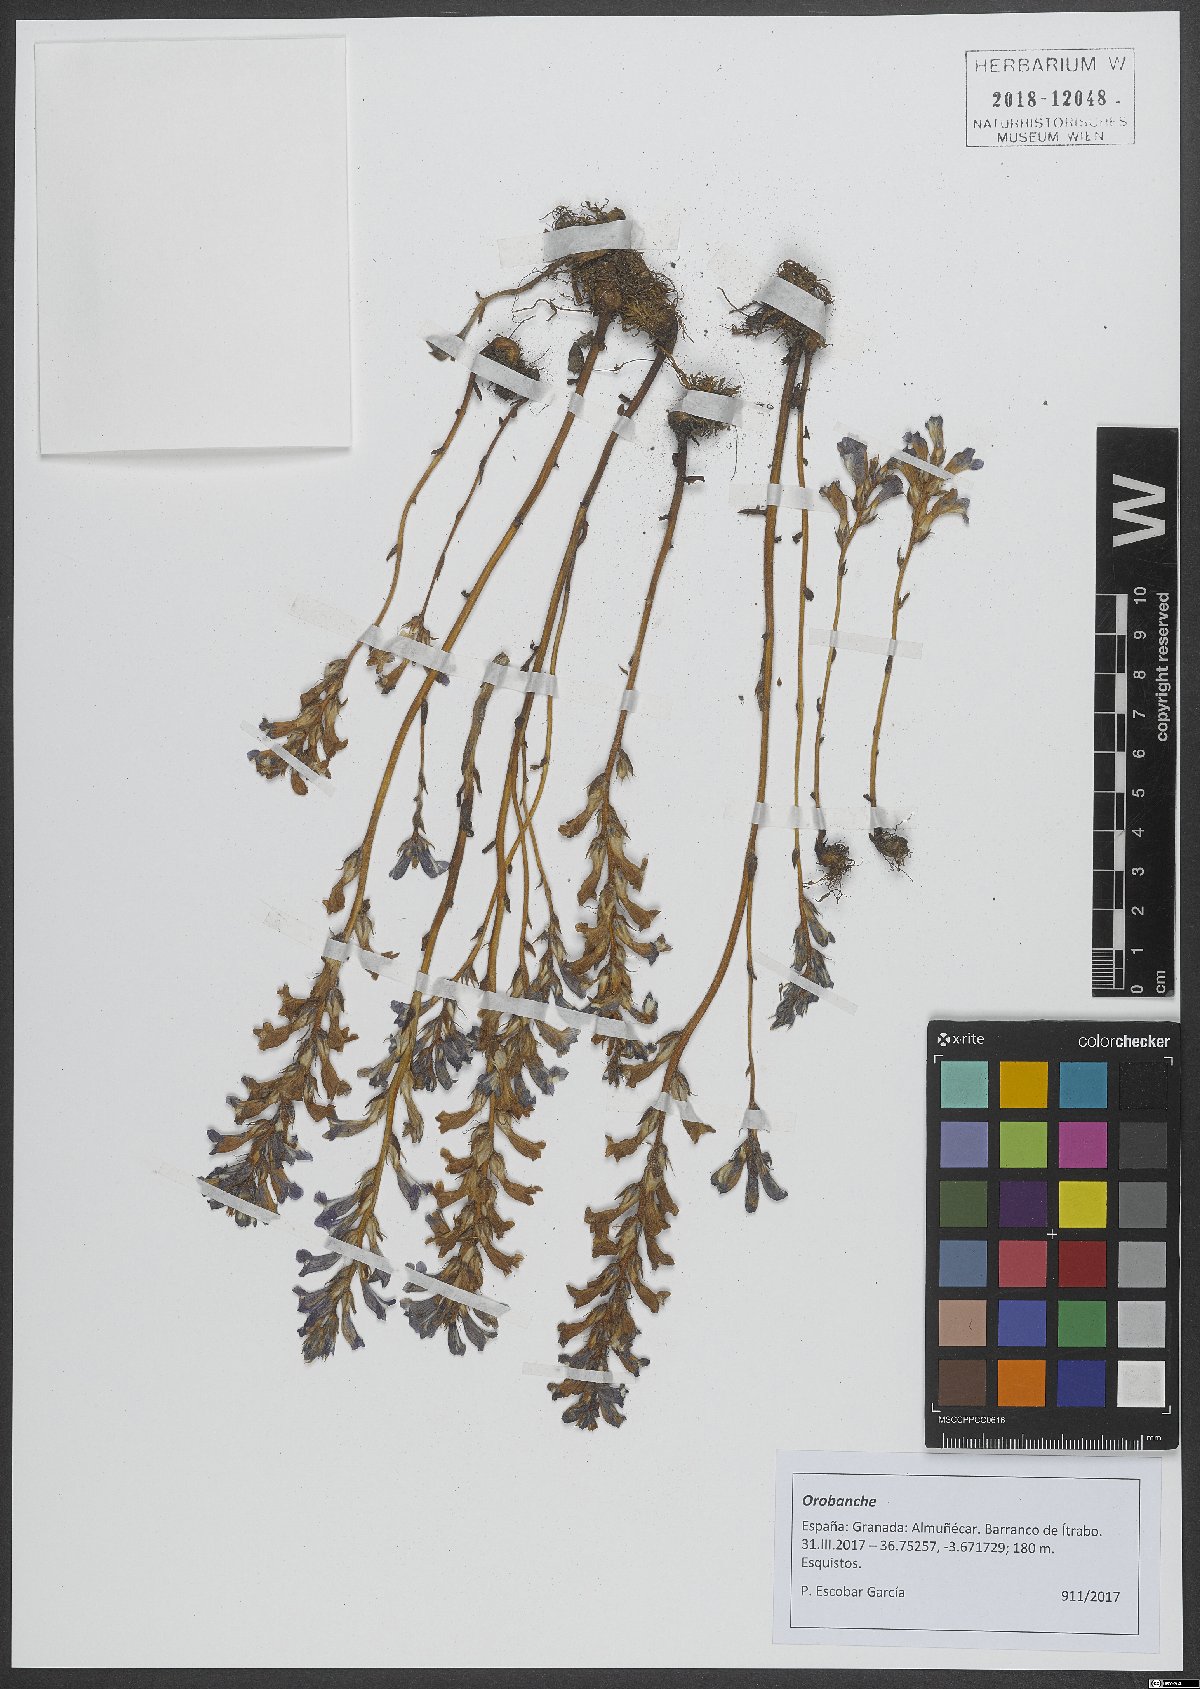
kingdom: Plantae
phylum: Tracheophyta
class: Magnoliopsida
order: Lamiales
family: Orobanchaceae
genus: Orobanche
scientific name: Orobanche
